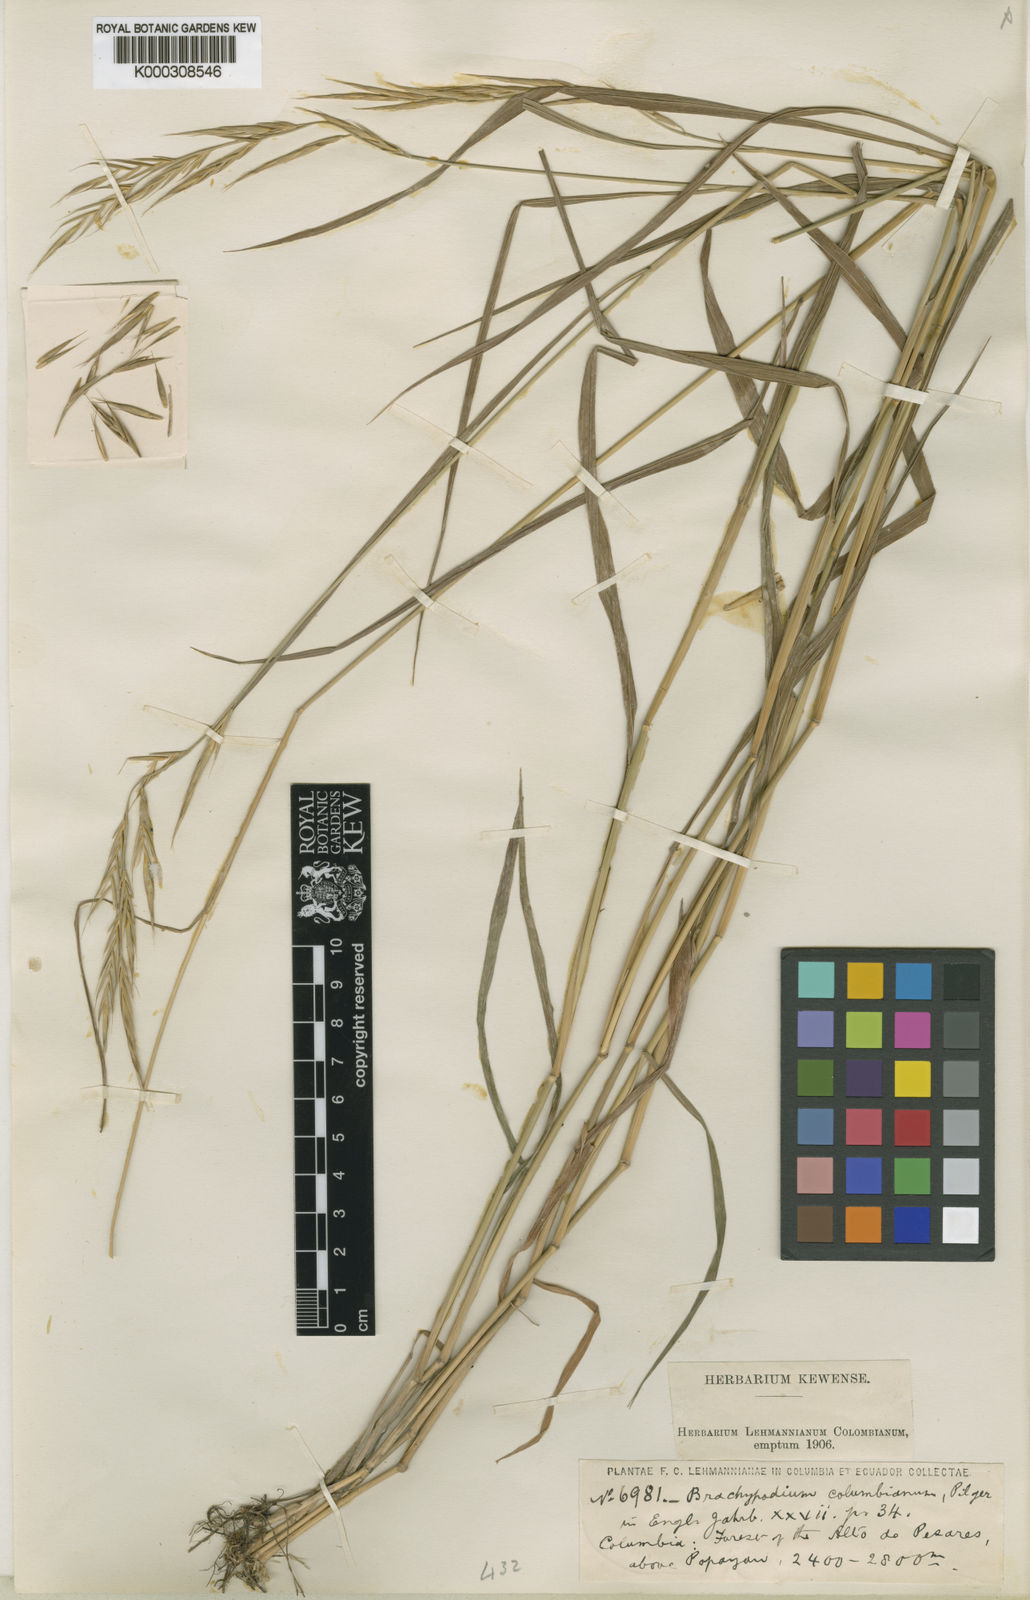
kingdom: Plantae
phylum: Tracheophyta
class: Liliopsida
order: Poales
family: Poaceae
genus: Brachypodium
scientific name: Brachypodium mexicanum
